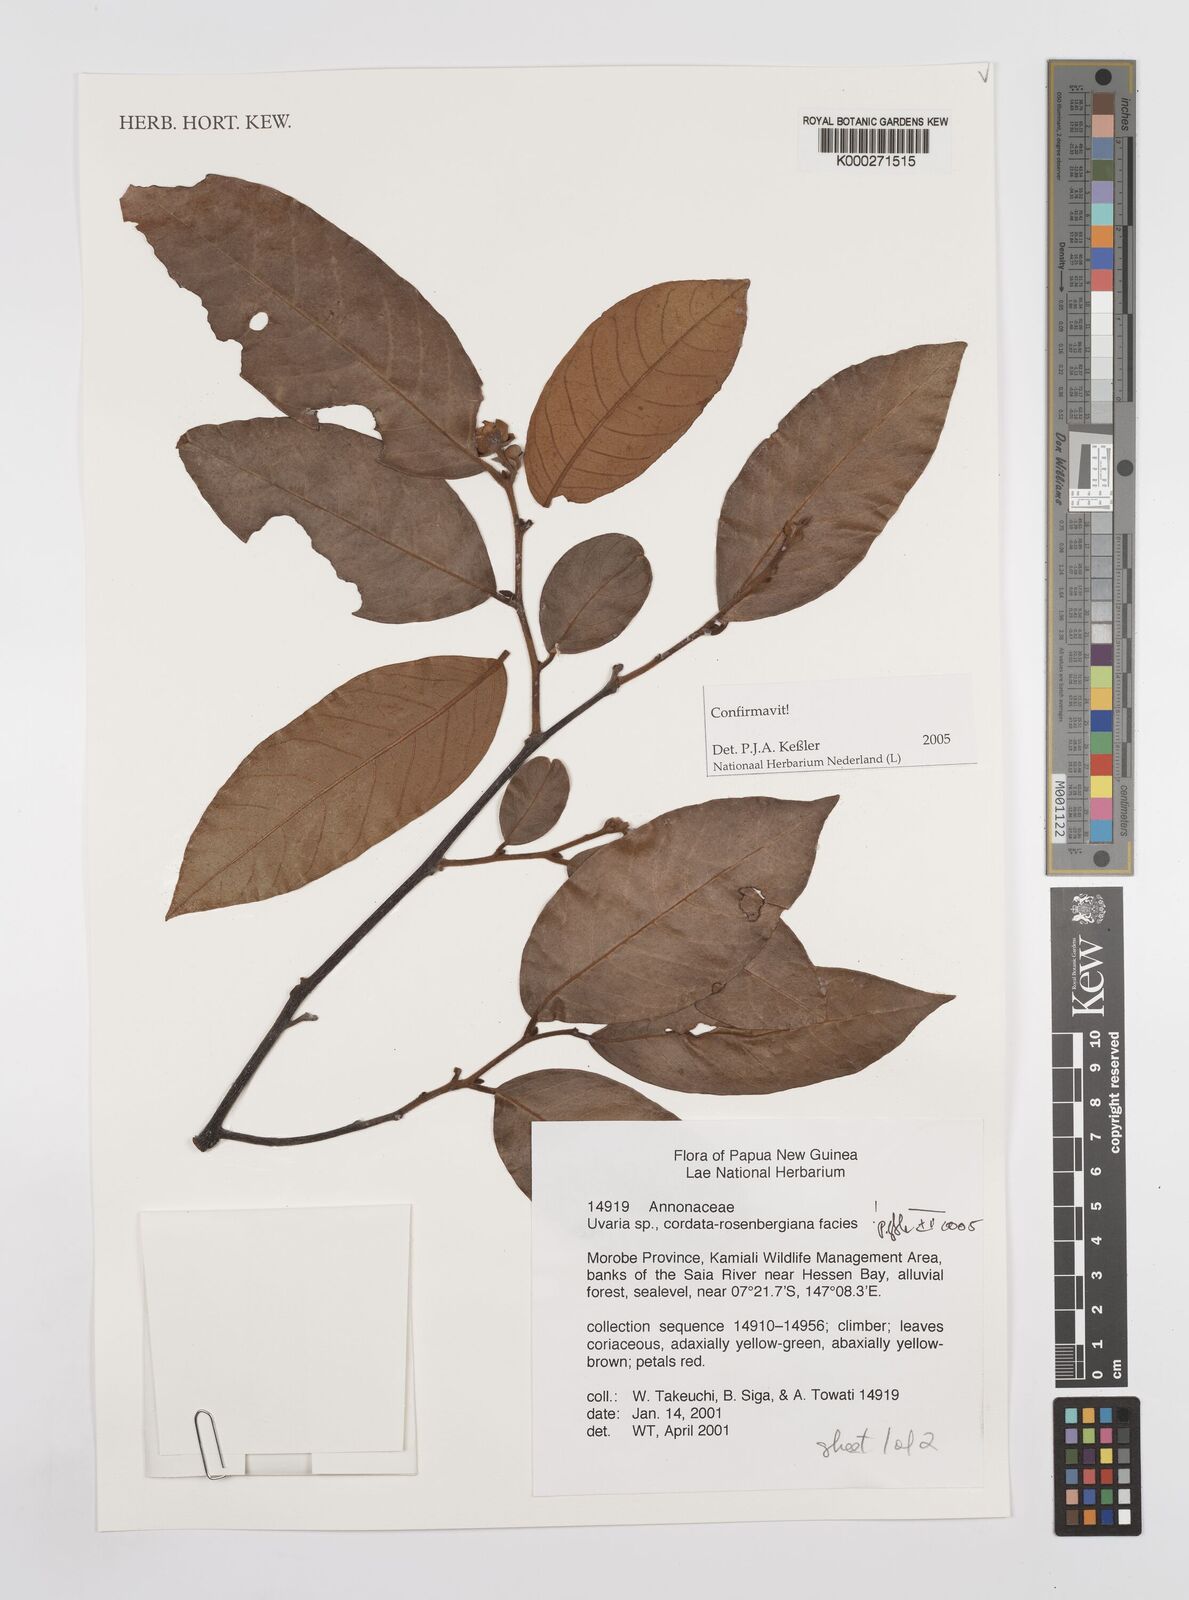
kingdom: Plantae
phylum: Tracheophyta
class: Magnoliopsida
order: Magnoliales
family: Annonaceae
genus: Uvaria
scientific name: Uvaria
